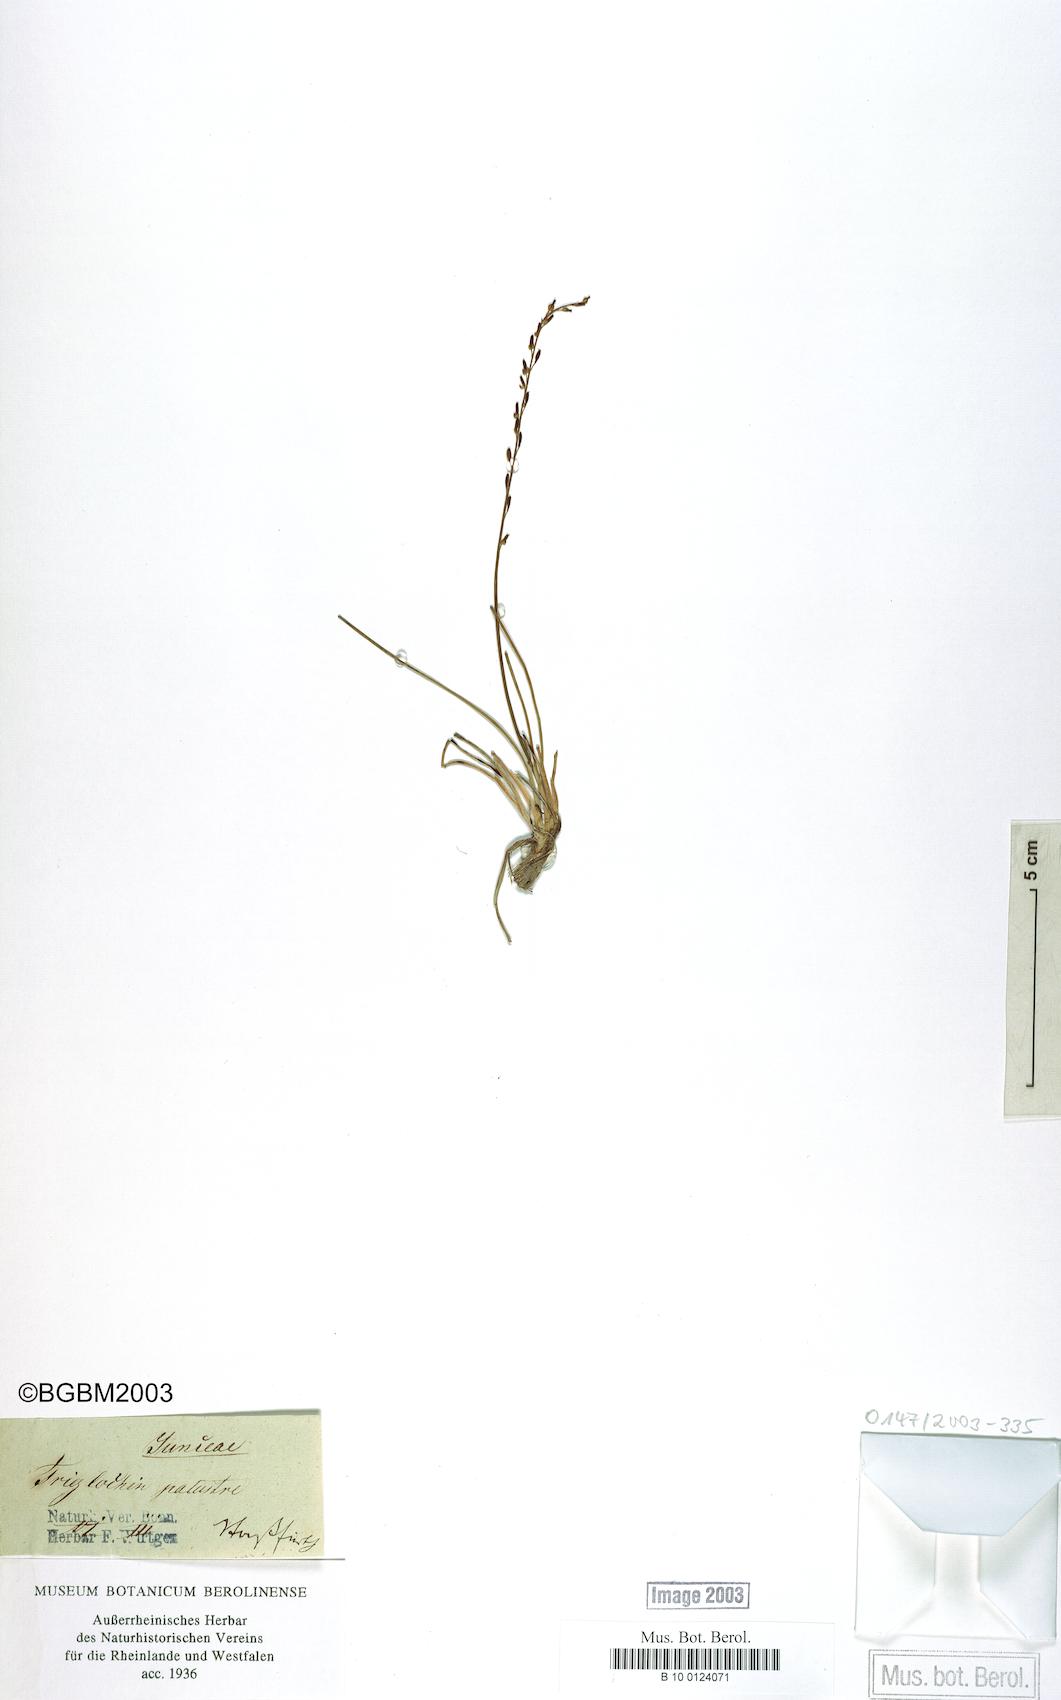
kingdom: Plantae
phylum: Tracheophyta
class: Liliopsida
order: Alismatales
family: Juncaginaceae
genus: Triglochin
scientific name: Triglochin palustris
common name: Marsh arrowgrass
